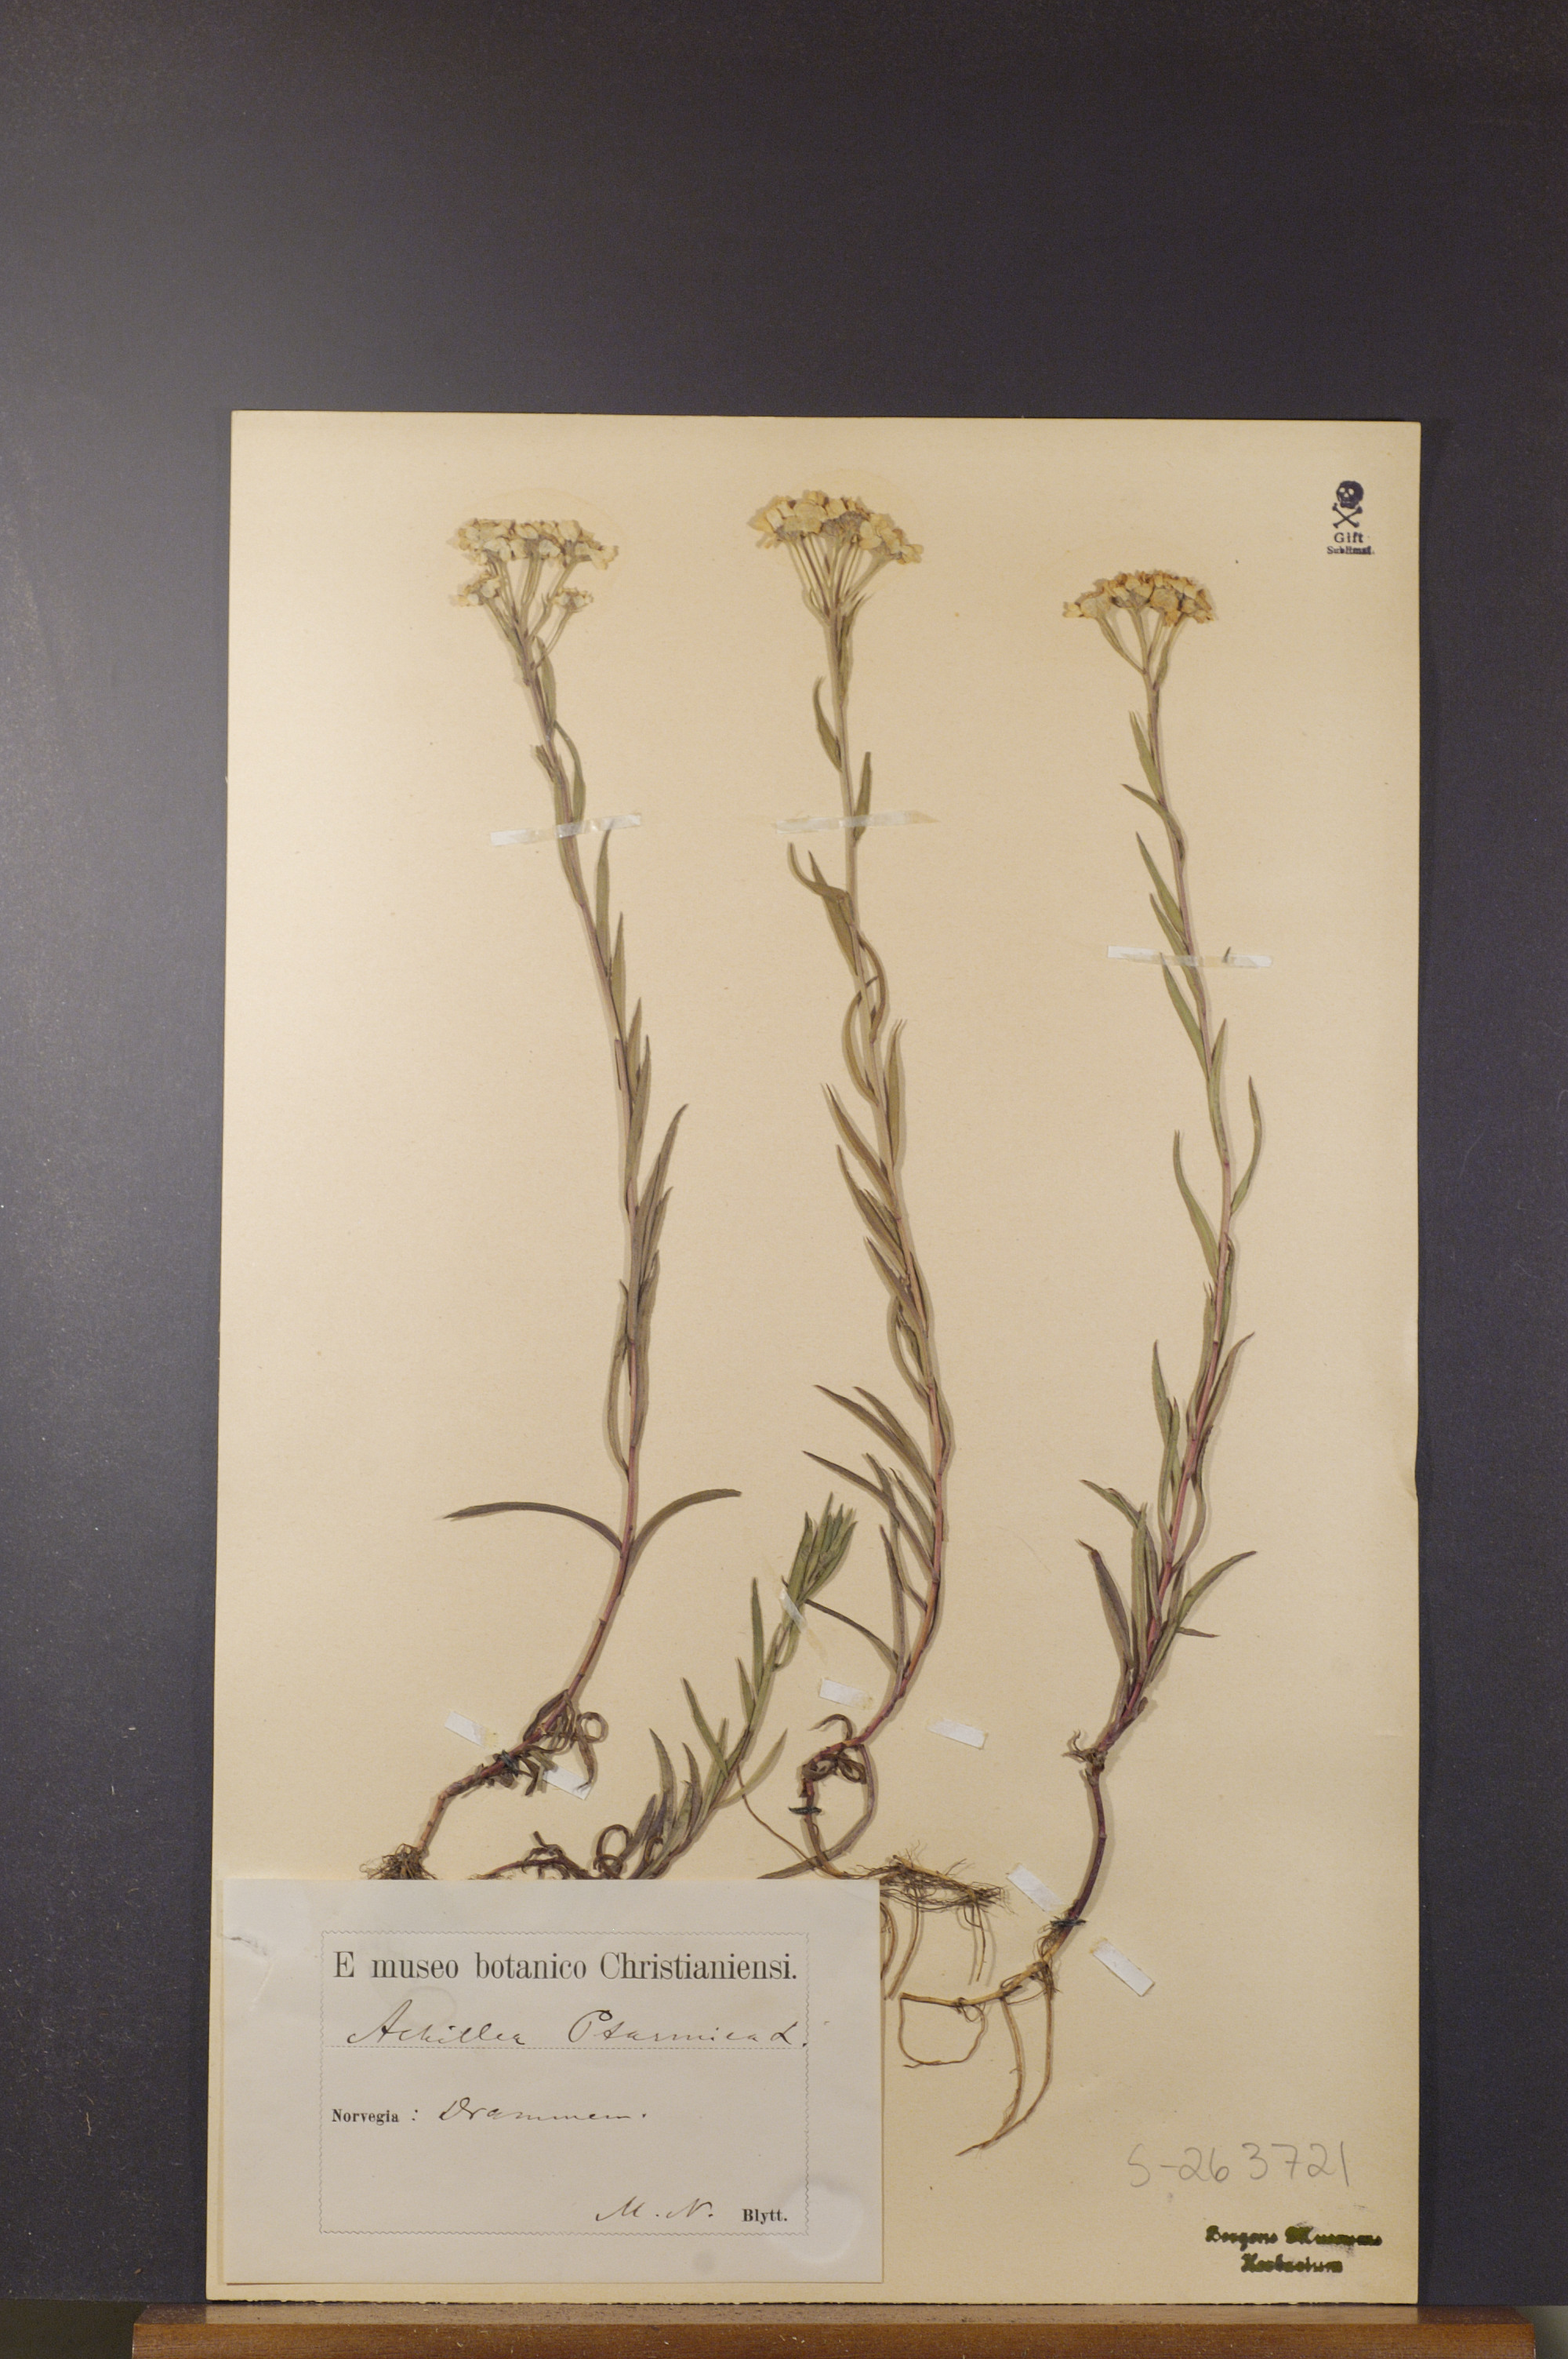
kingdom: Plantae
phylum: Tracheophyta
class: Magnoliopsida
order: Asterales
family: Asteraceae
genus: Achillea
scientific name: Achillea ptarmica
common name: Sneezeweed
